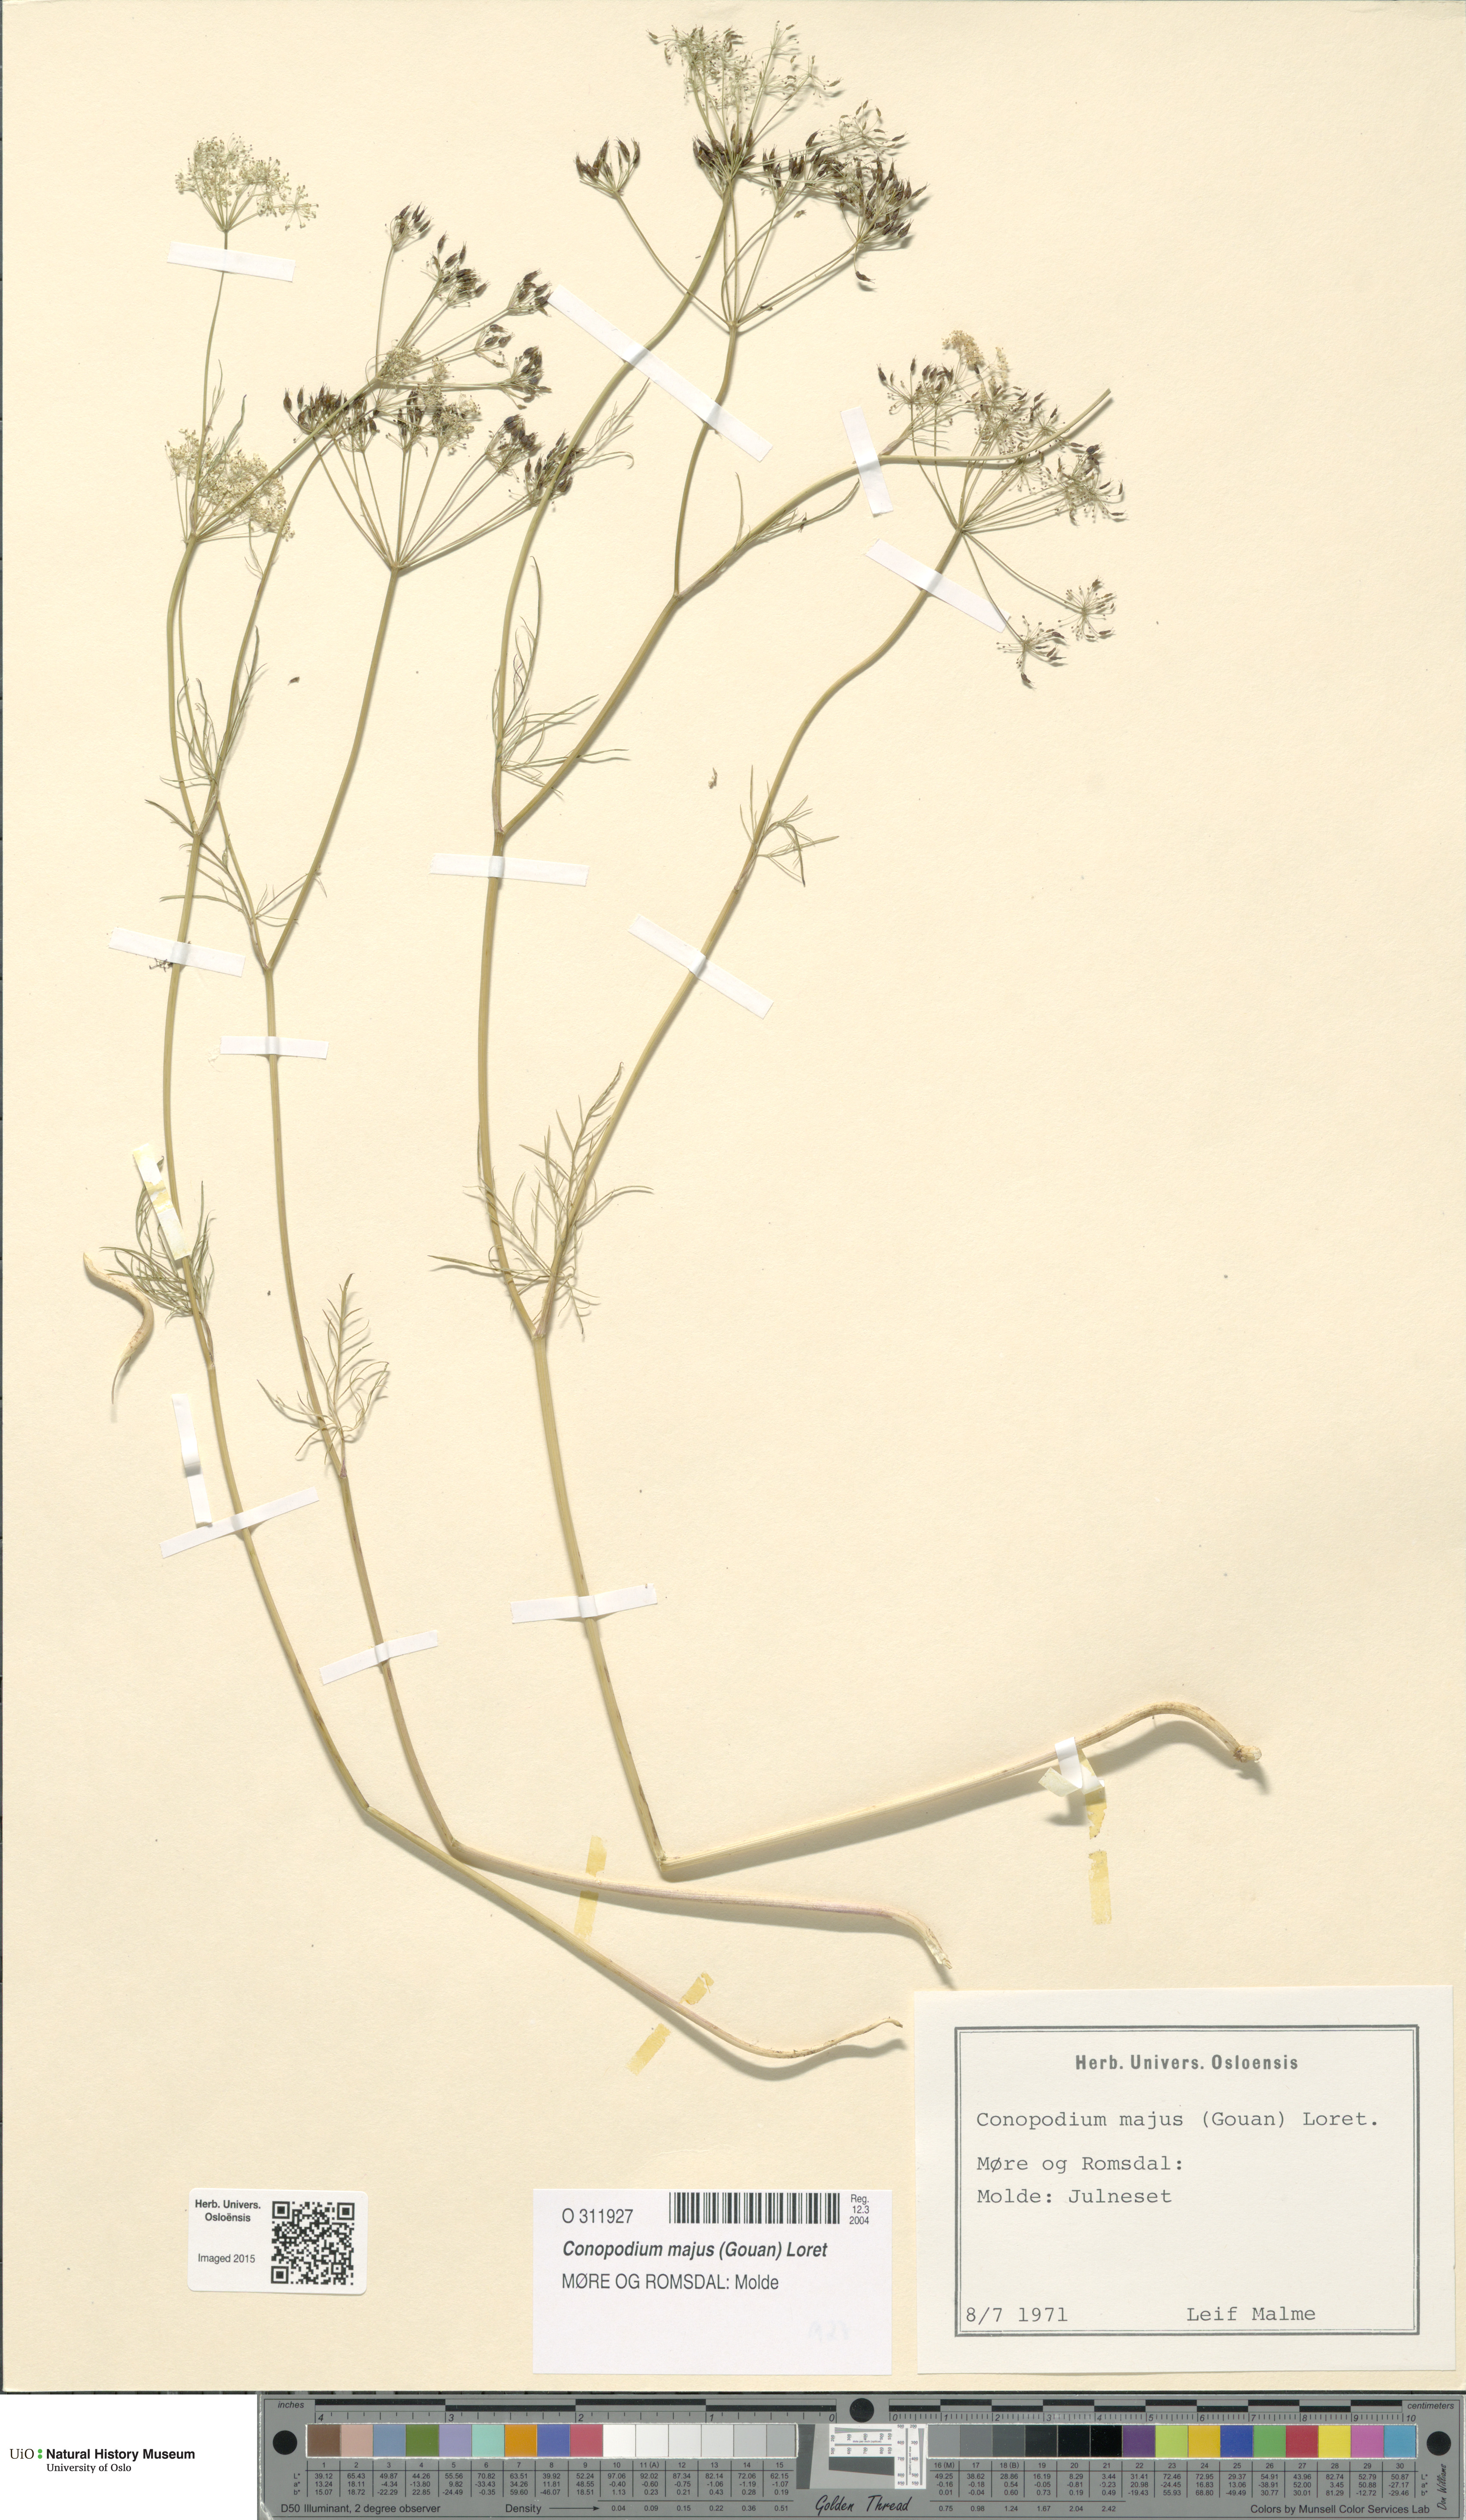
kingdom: Plantae
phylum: Tracheophyta
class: Magnoliopsida
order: Apiales
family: Apiaceae
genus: Conopodium
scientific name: Conopodium majus
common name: Pignut
